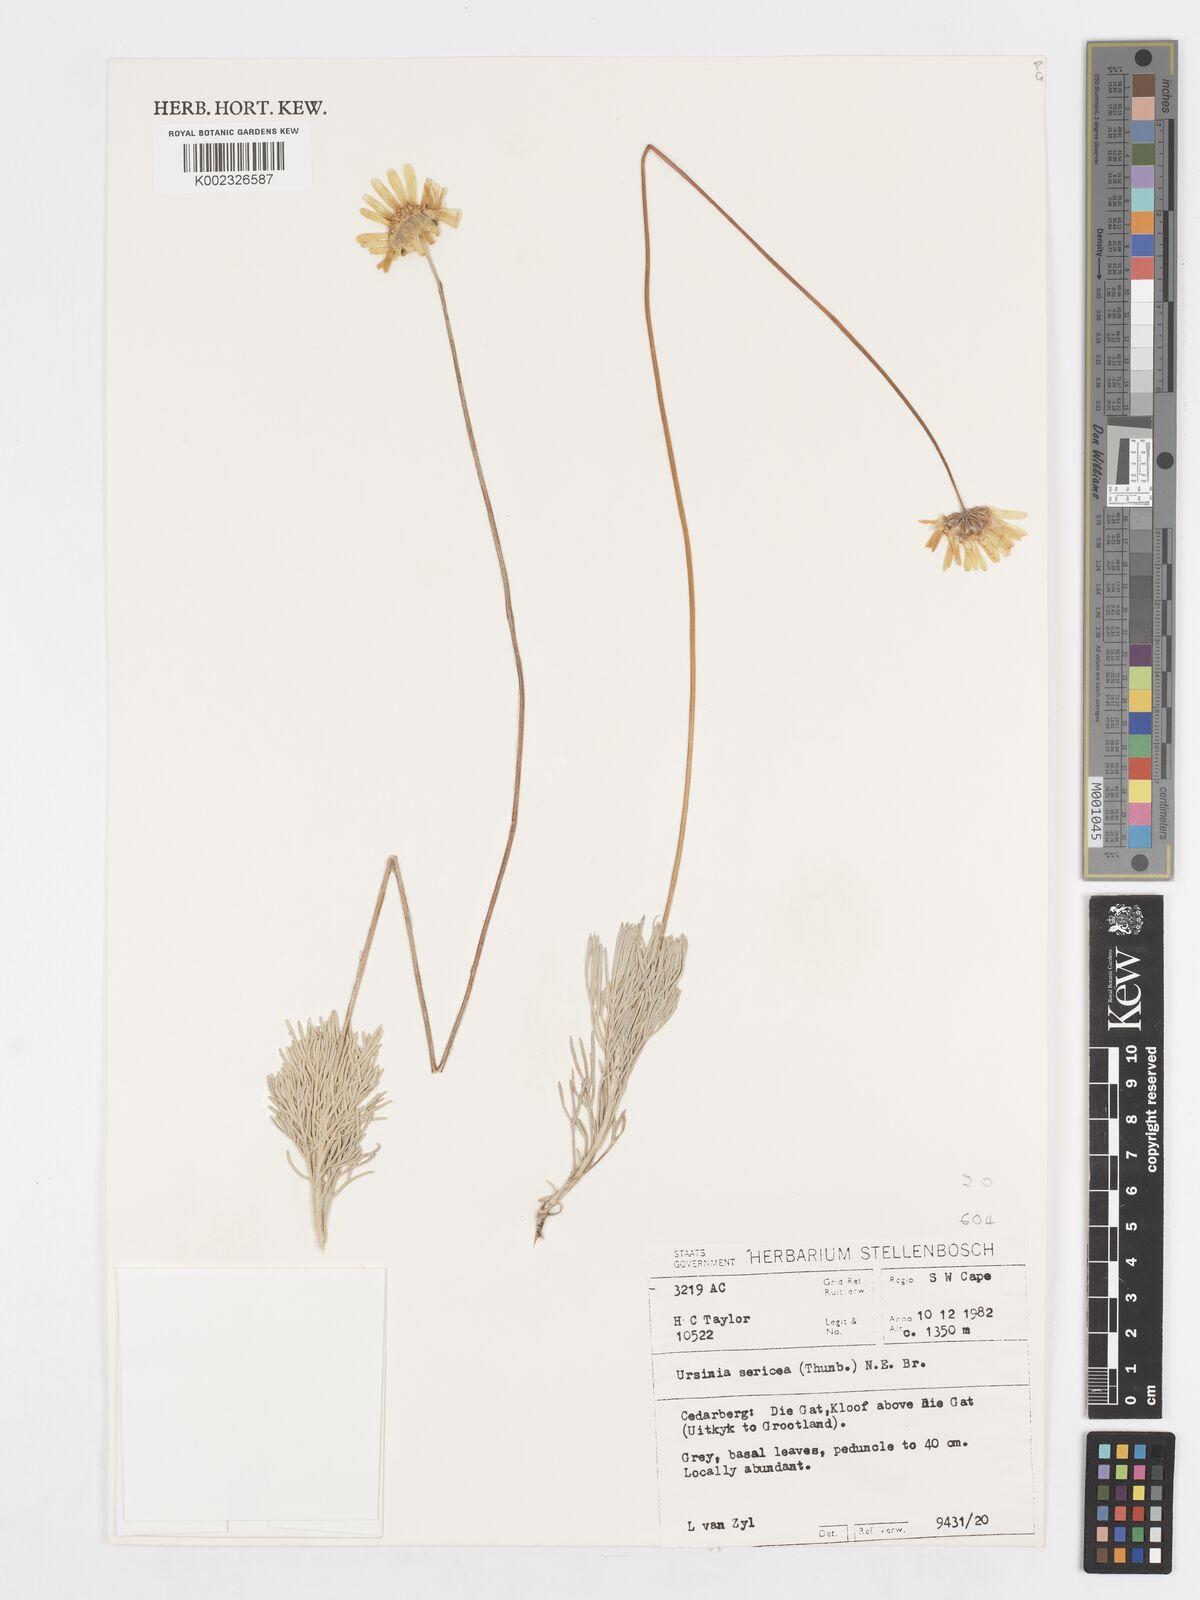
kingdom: Plantae
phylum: Tracheophyta
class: Magnoliopsida
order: Asterales
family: Asteraceae
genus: Ursinia
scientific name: Ursinia sericea
